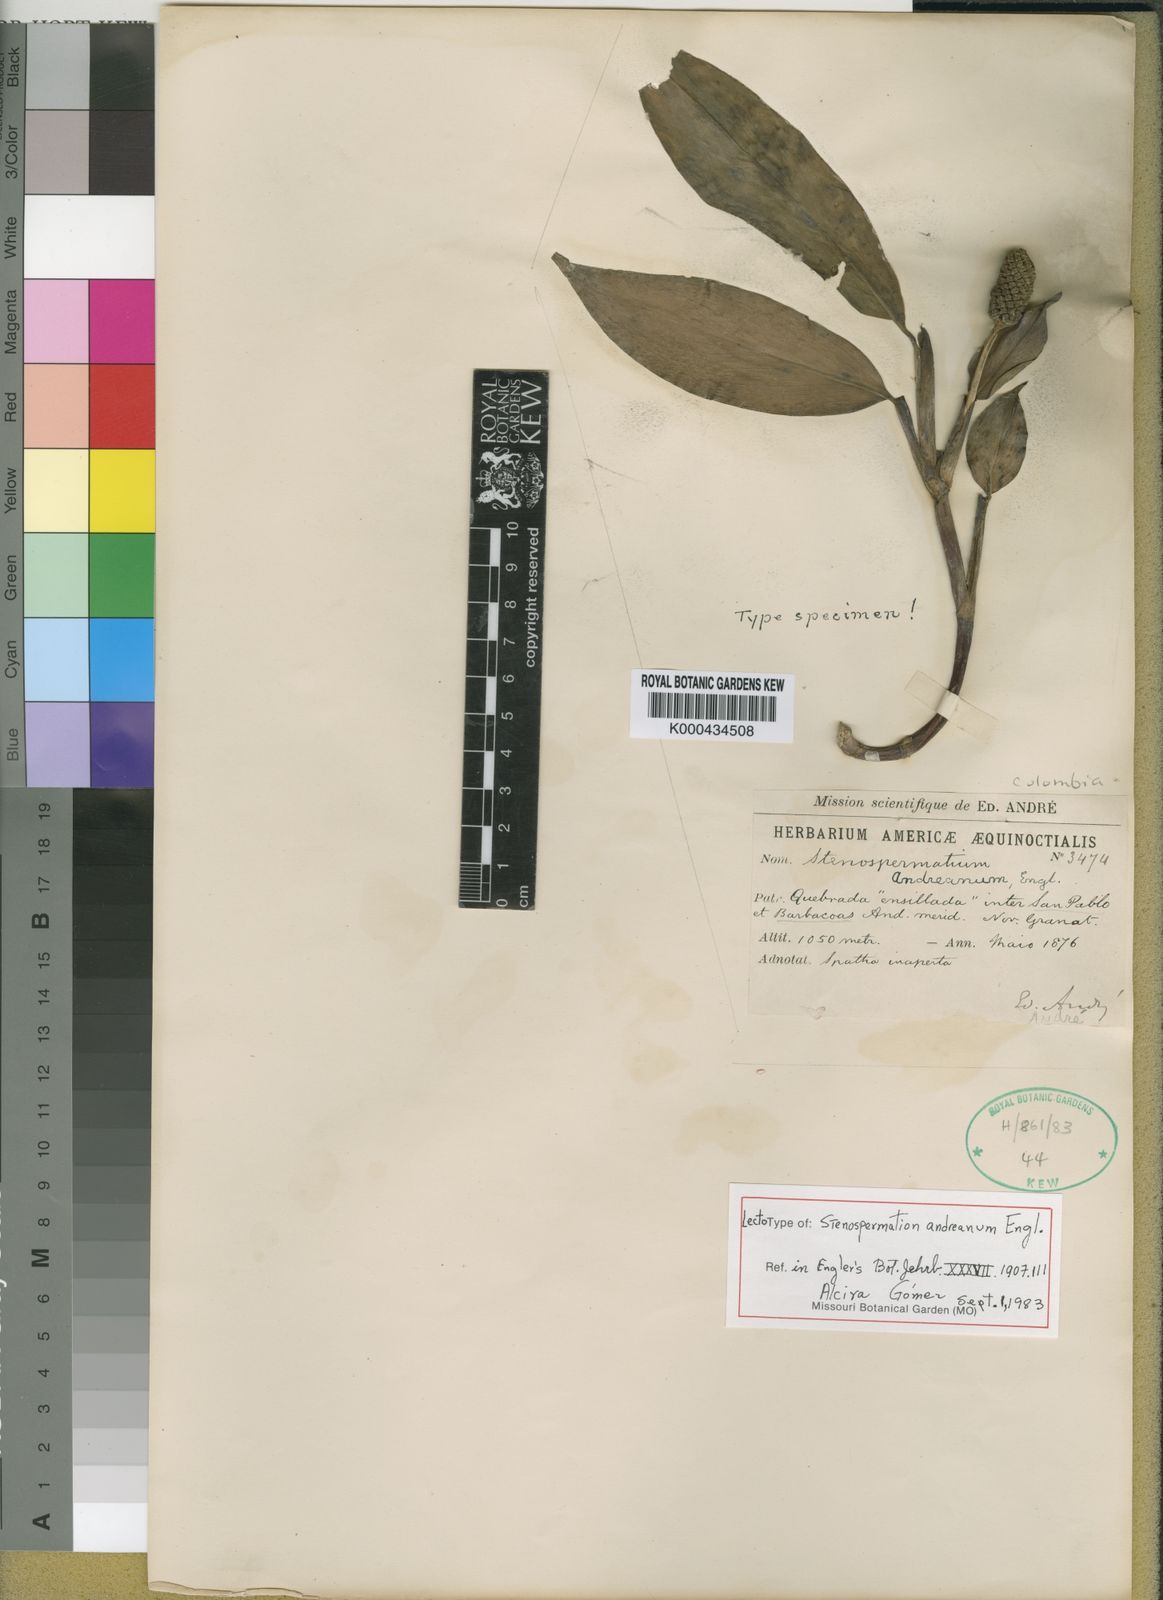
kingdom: Plantae
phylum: Tracheophyta
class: Liliopsida
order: Alismatales
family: Araceae
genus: Stenospermation
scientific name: Stenospermation andreanum
